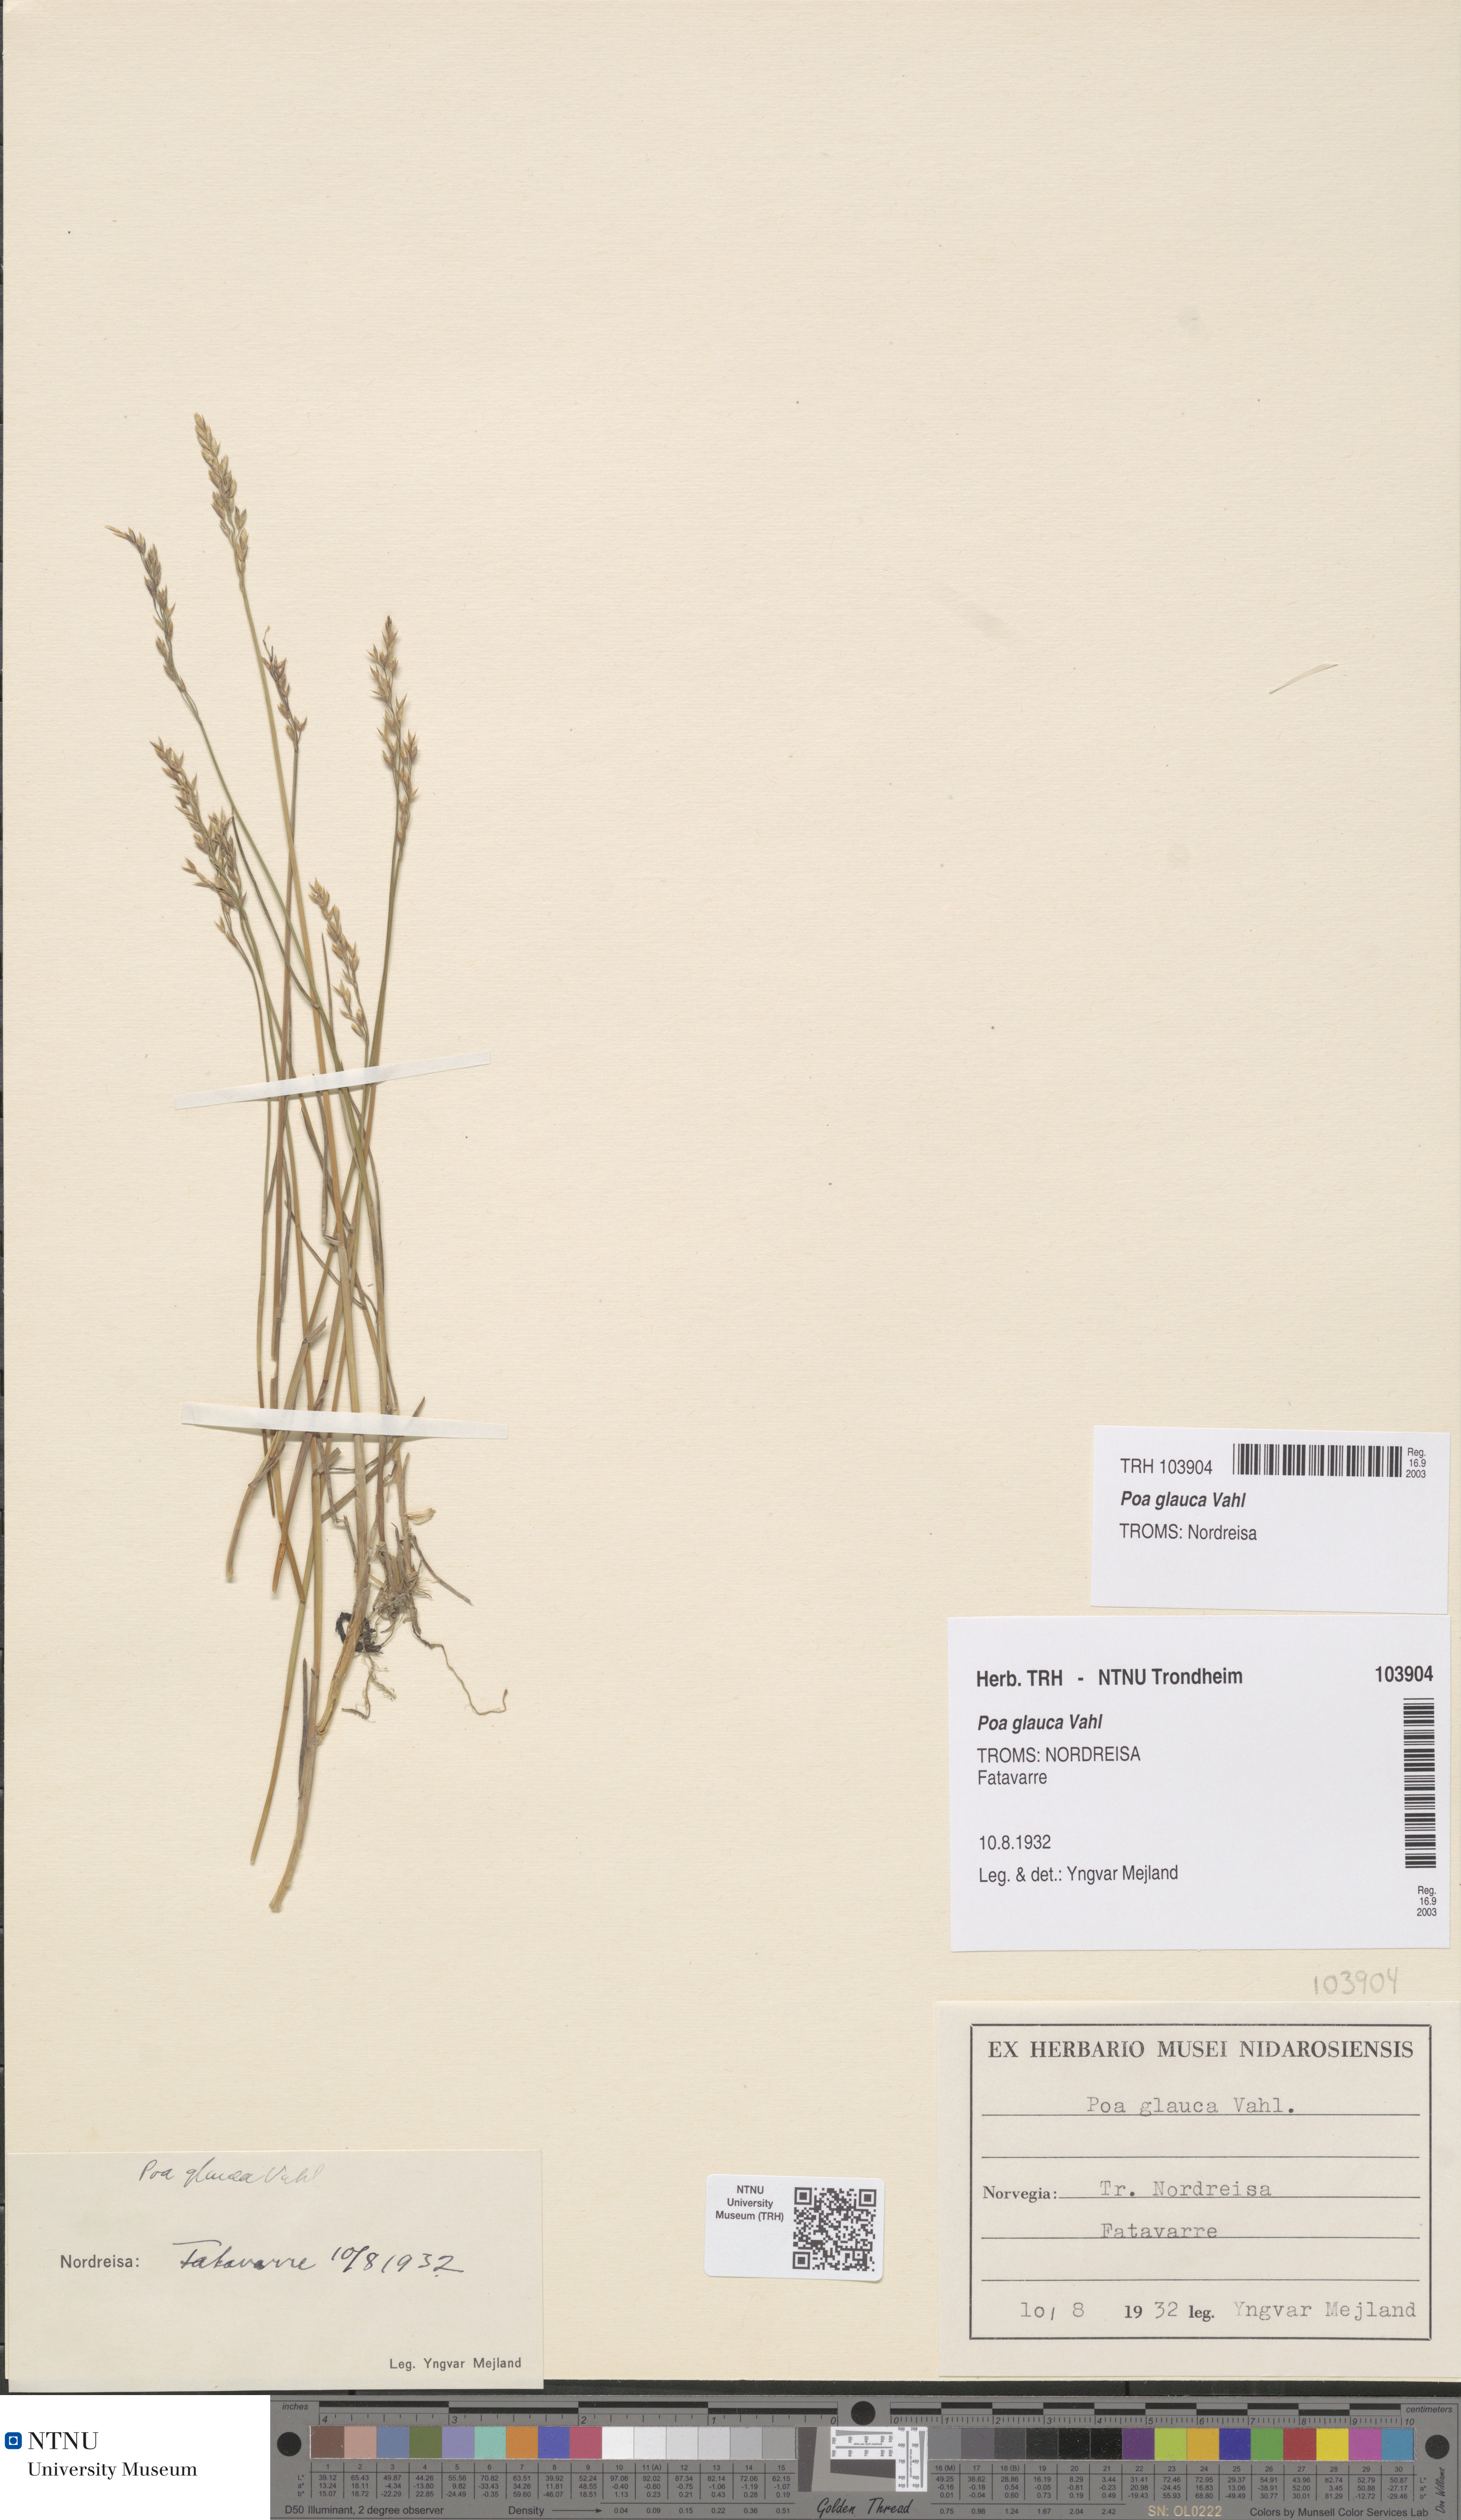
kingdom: Plantae
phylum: Tracheophyta
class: Liliopsida
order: Poales
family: Poaceae
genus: Poa
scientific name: Poa glauca
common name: Glaucous bluegrass
